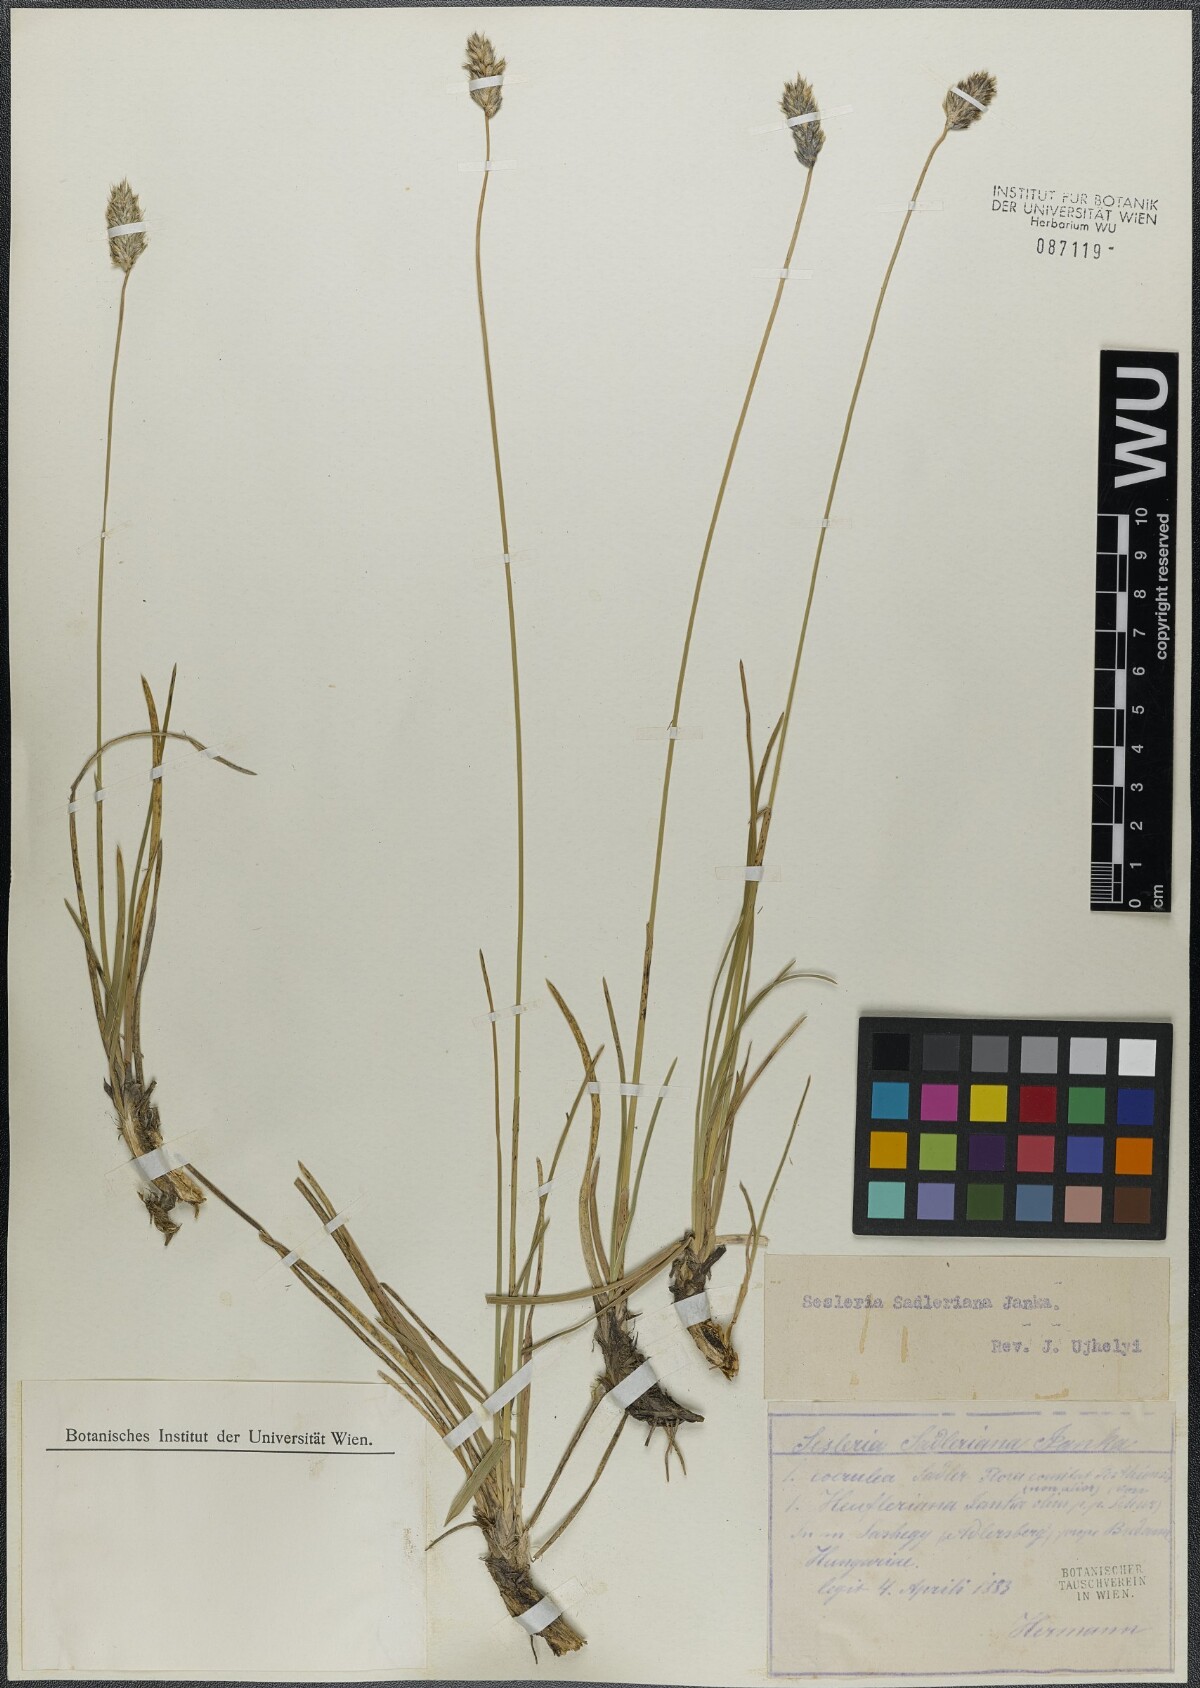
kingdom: Plantae
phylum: Tracheophyta
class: Liliopsida
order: Poales
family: Poaceae
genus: Sesleria
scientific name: Sesleria sadleriana
